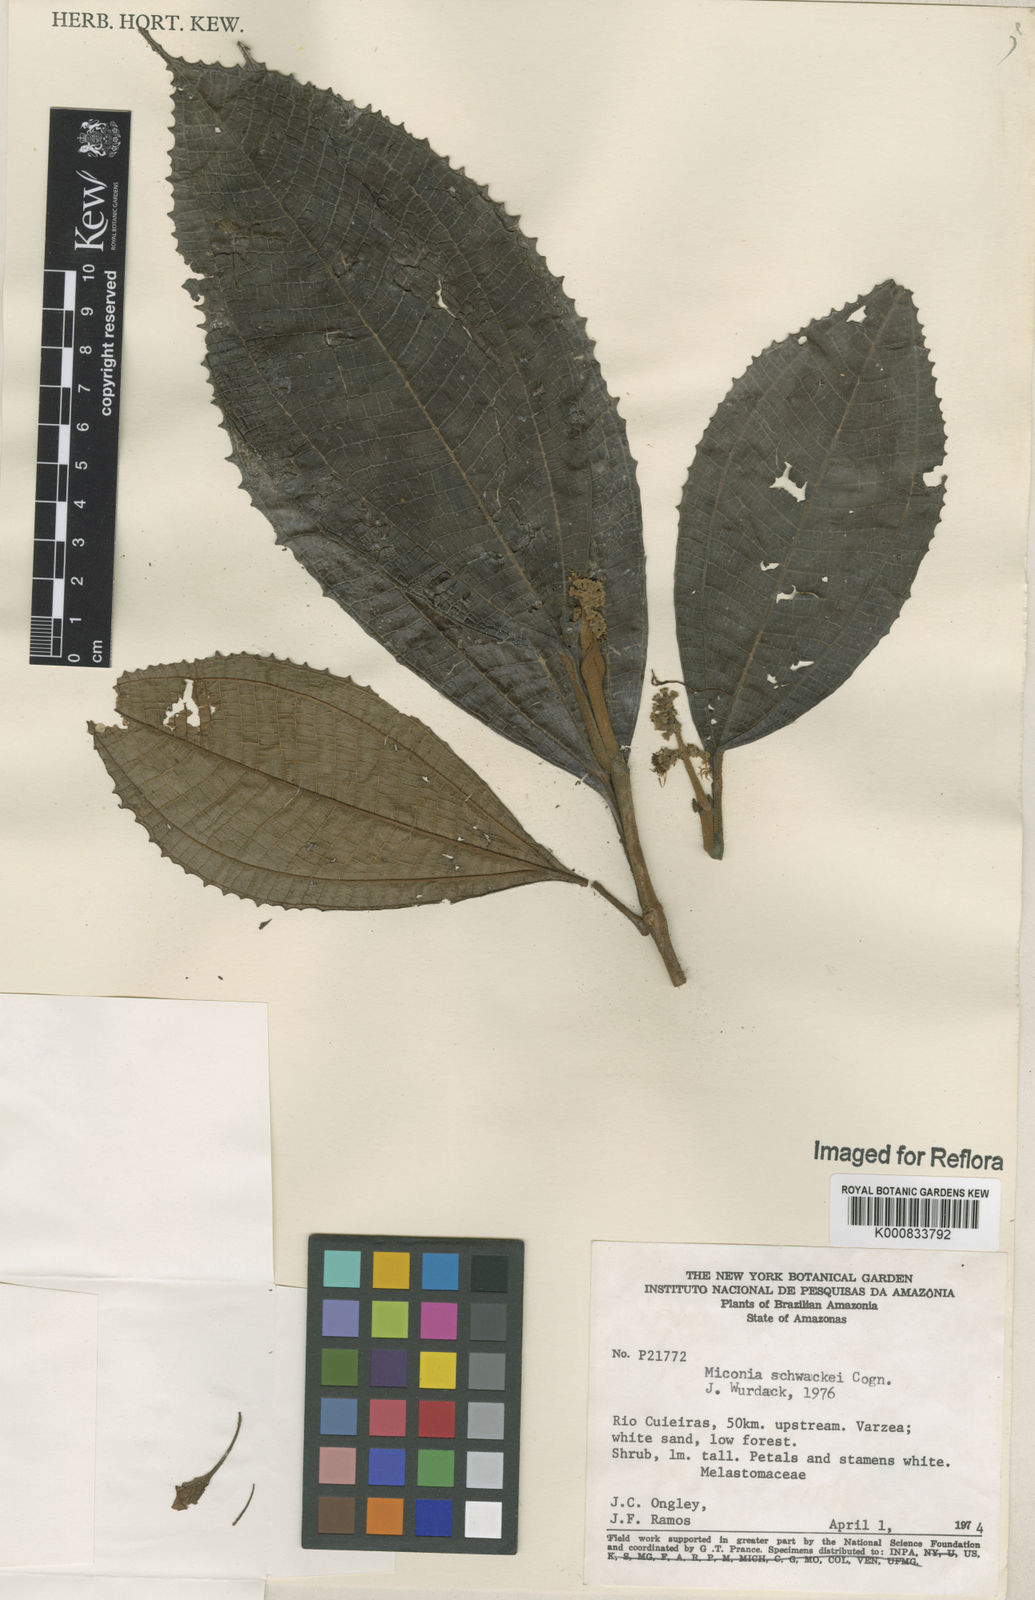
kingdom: Plantae
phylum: Tracheophyta
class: Magnoliopsida
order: Myrtales
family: Melastomataceae
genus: Miconia
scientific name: Miconia schwackei
